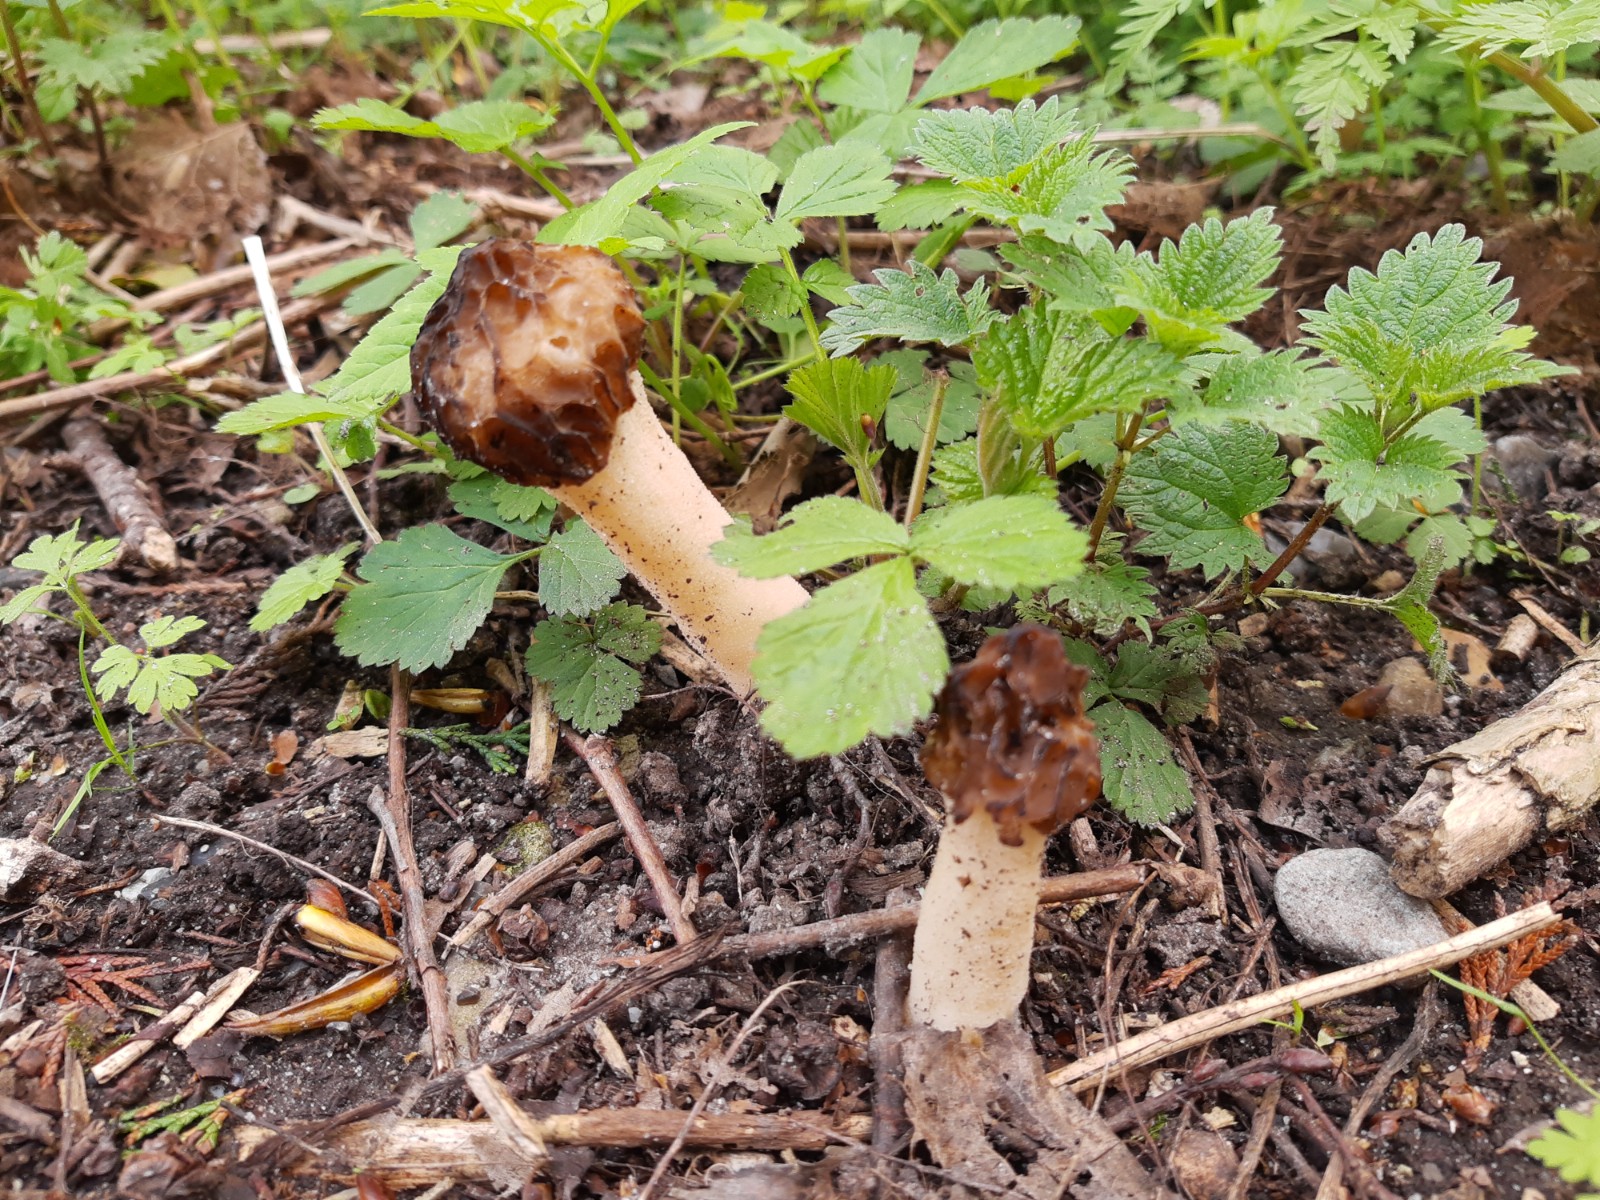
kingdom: Fungi
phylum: Ascomycota
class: Pezizomycetes
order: Pezizales
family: Morchellaceae
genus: Morchella
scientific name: Morchella semilibera
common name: hætte-morkel
